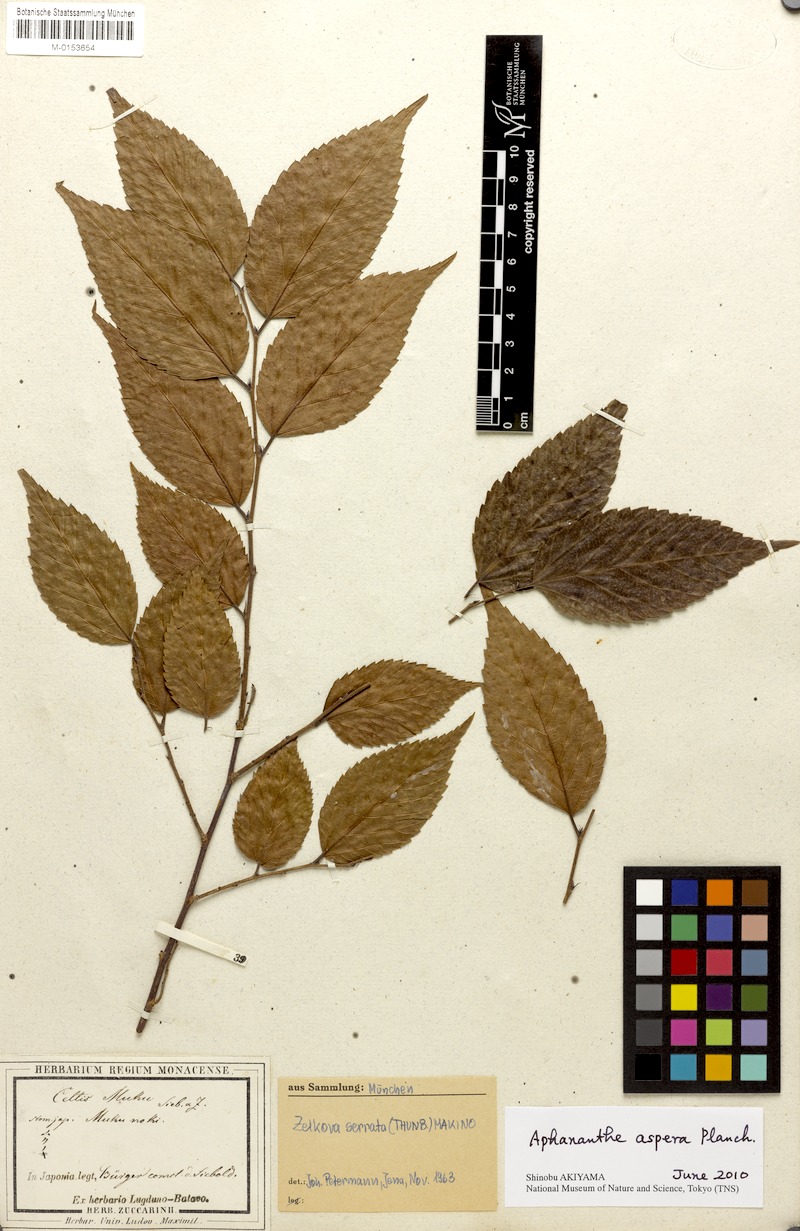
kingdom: Plantae
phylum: Tracheophyta
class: Magnoliopsida
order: Rosales
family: Cannabaceae
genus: Aphananthe
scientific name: Aphananthe aspera
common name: Mukutree
